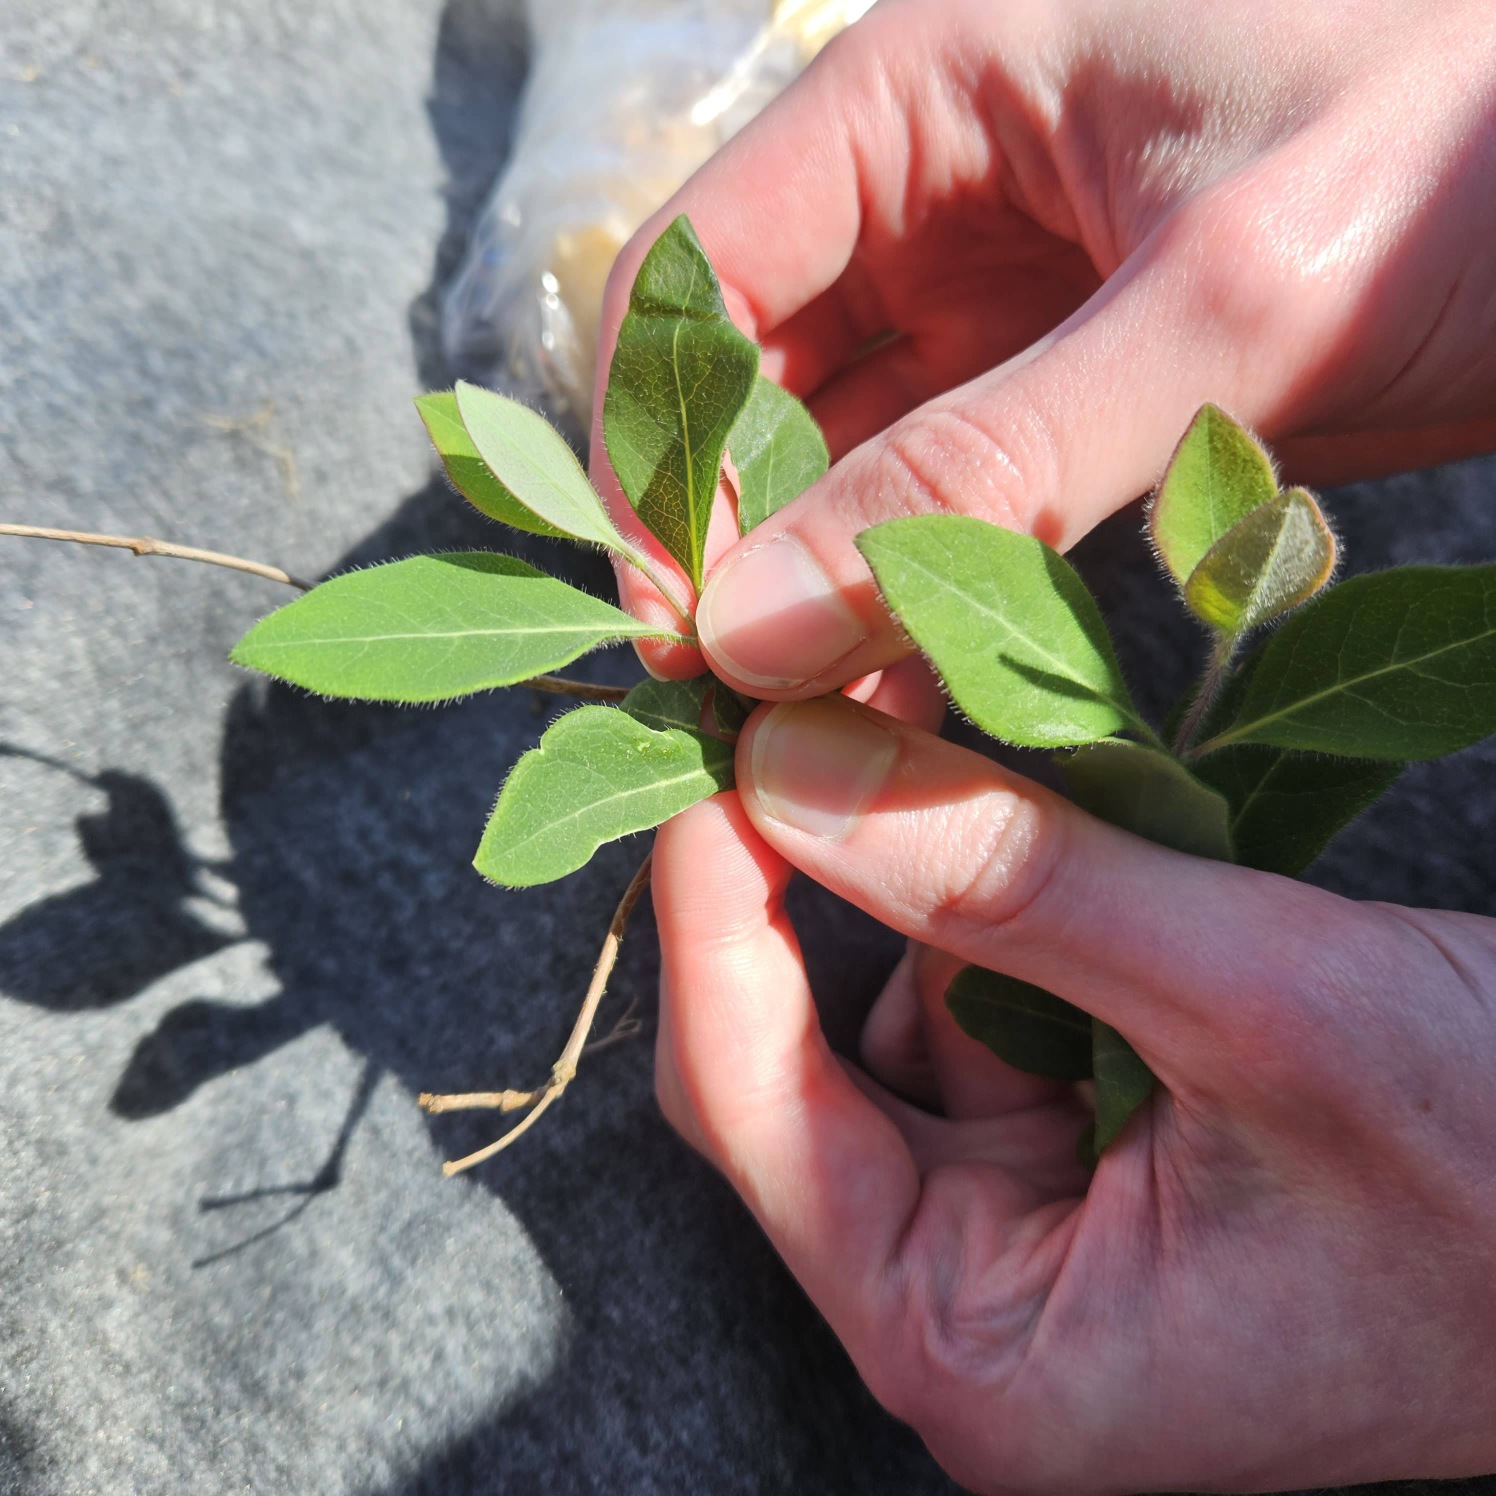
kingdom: Plantae
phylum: Tracheophyta
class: Magnoliopsida
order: Dipsacales
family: Caprifoliaceae
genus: Lonicera
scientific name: Lonicera periclymenum
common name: Almindelig gedeblad
